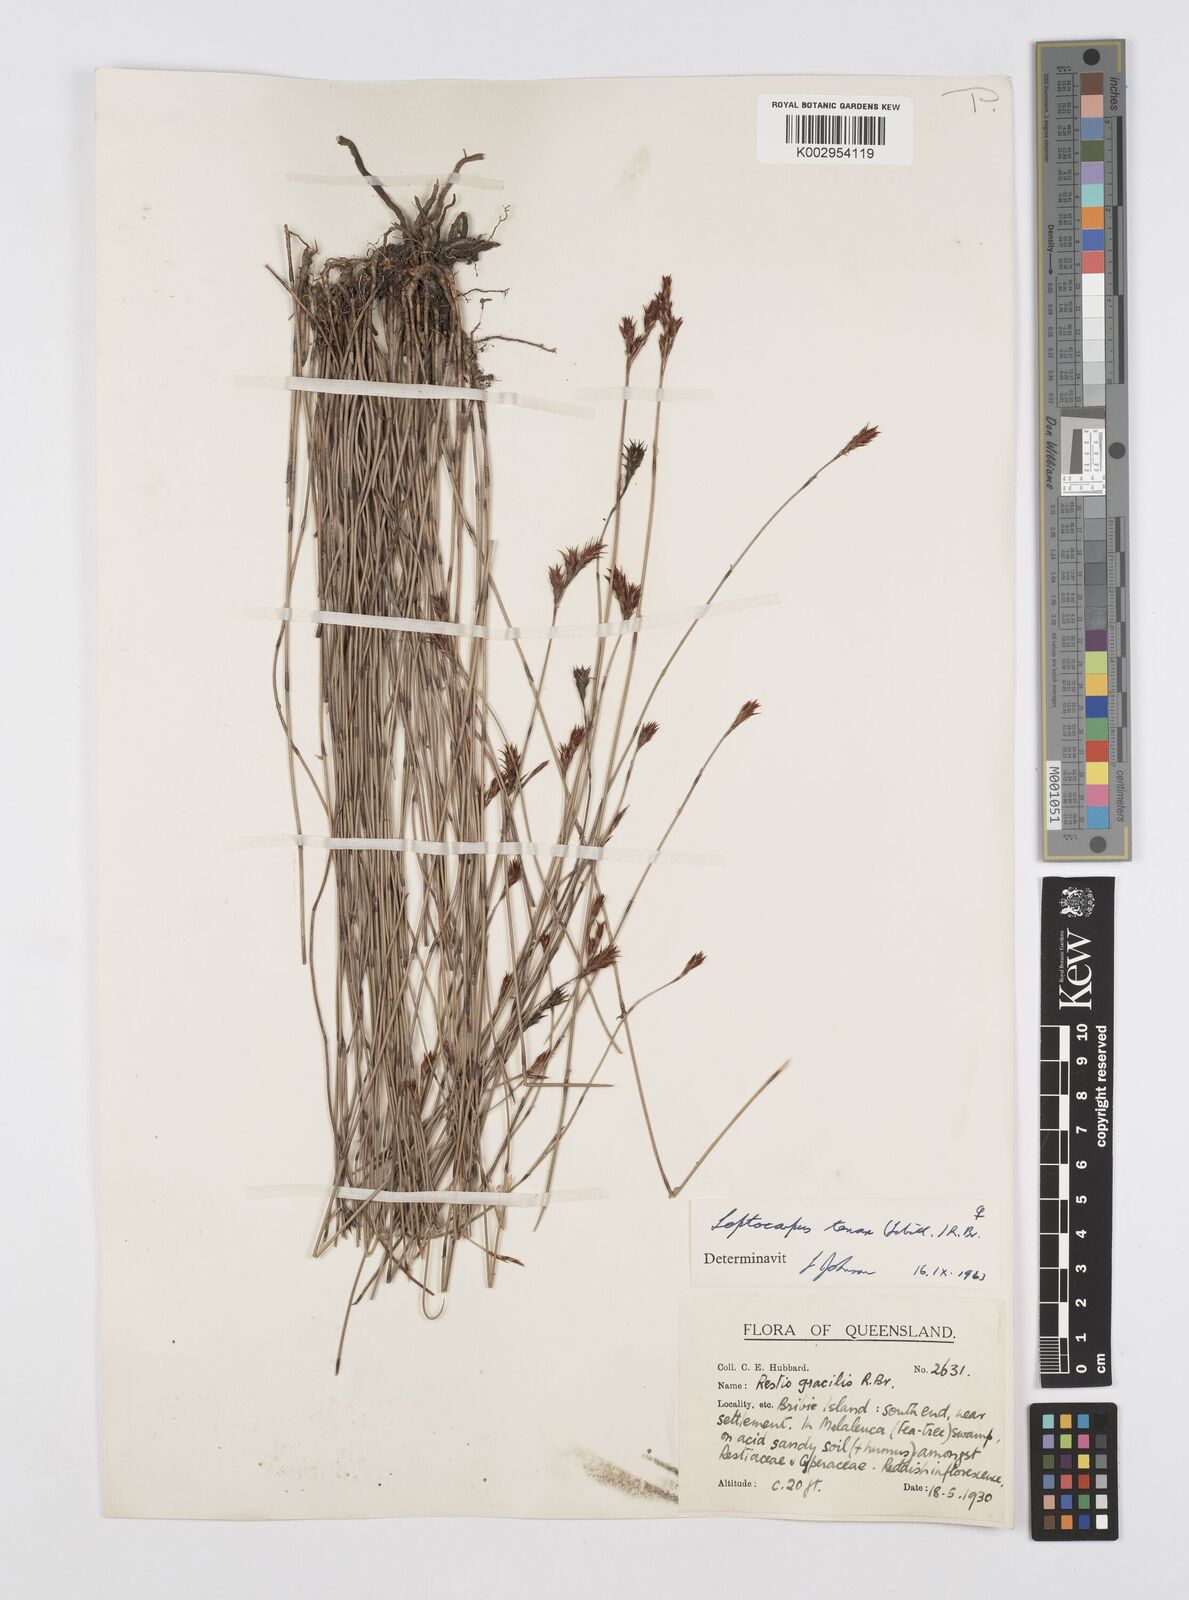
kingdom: Plantae
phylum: Tracheophyta
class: Liliopsida
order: Poales
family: Restionaceae
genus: Leptocarpus
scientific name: Leptocarpus tenax
